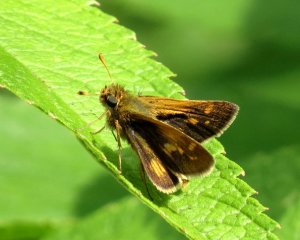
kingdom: Animalia
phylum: Arthropoda
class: Insecta
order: Lepidoptera
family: Hesperiidae
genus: Polites
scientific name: Polites coras
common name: Peck's Skipper
